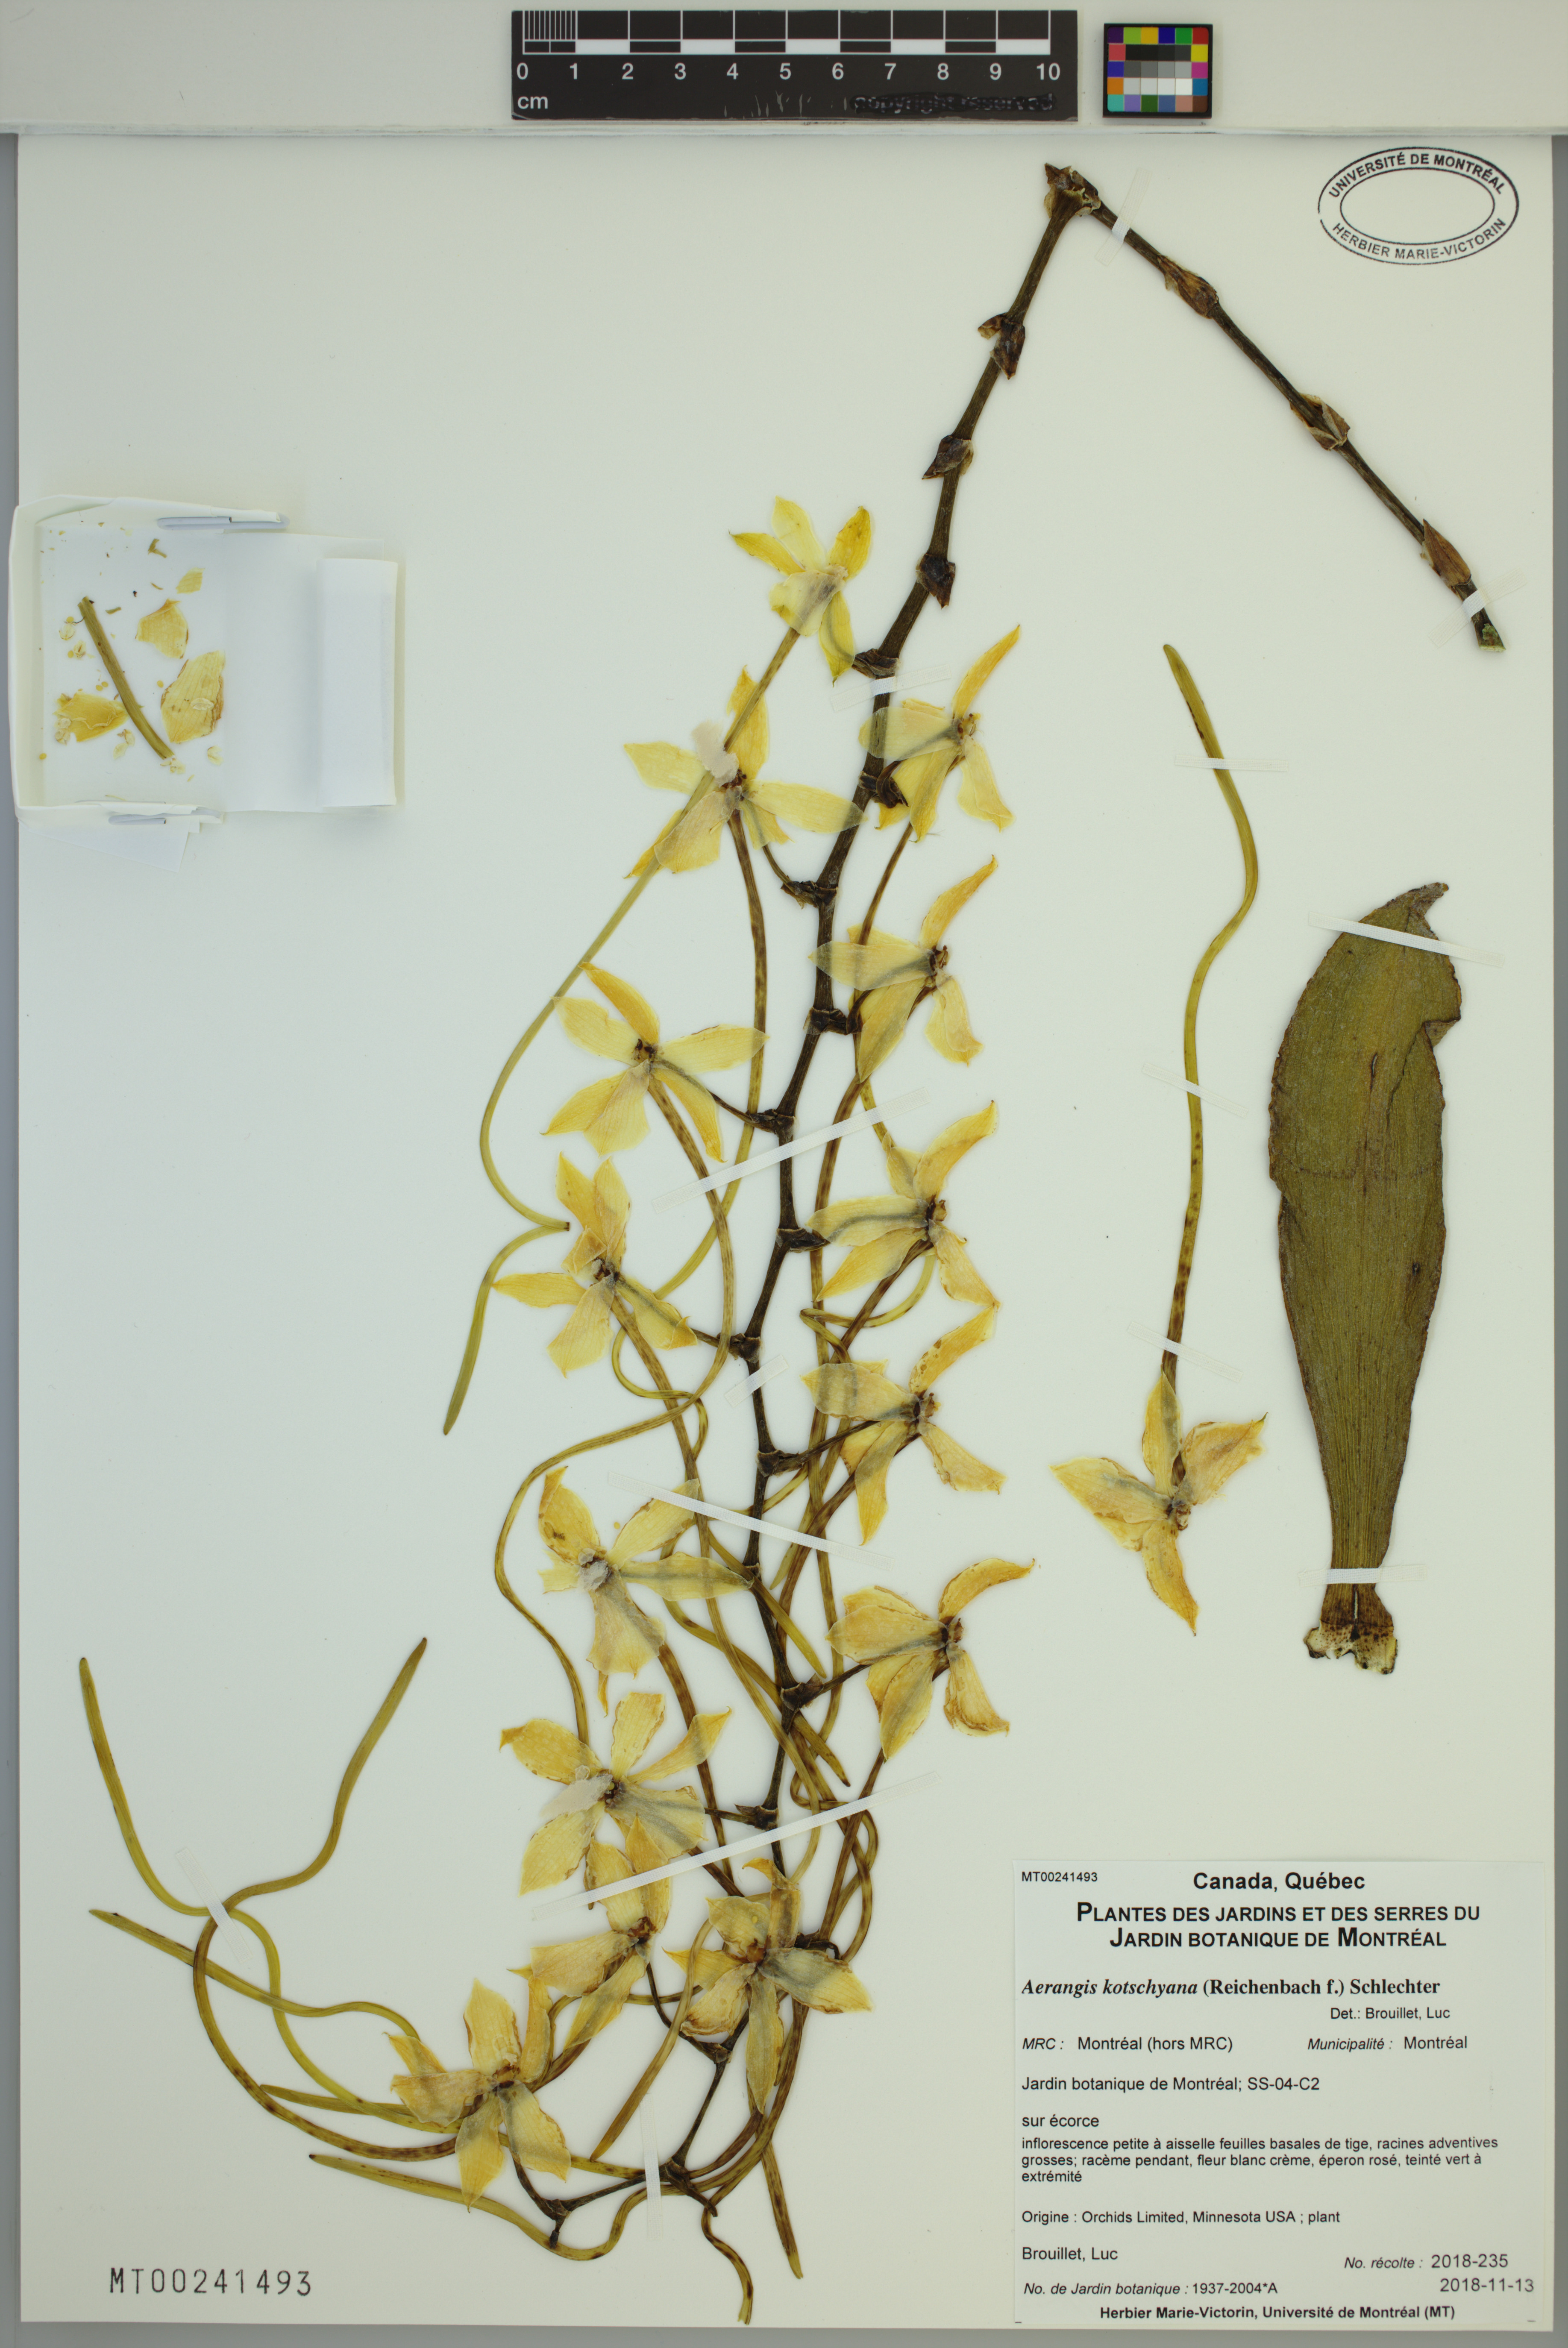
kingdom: Plantae
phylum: Tracheophyta
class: Liliopsida
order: Asparagales
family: Orchidaceae
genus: Aerangis
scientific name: Aerangis kotschyana
